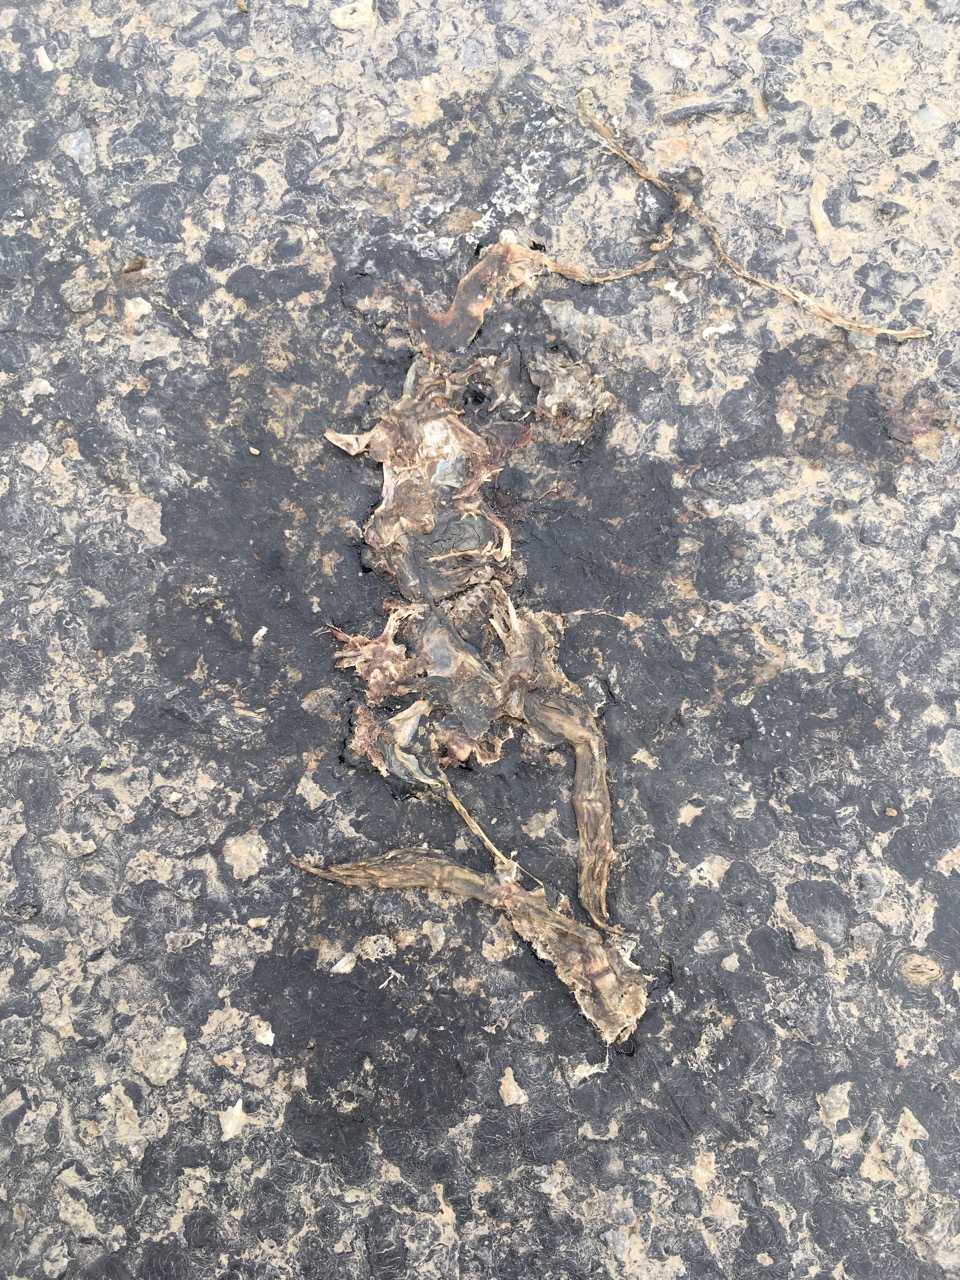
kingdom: Animalia
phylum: Chordata
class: Amphibia
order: Anura
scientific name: Anura
